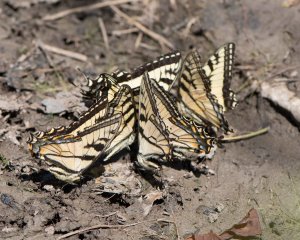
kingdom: Animalia
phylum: Arthropoda
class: Insecta
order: Lepidoptera
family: Papilionidae
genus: Pterourus
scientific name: Pterourus canadensis
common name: Canadian Tiger Swallowtail
